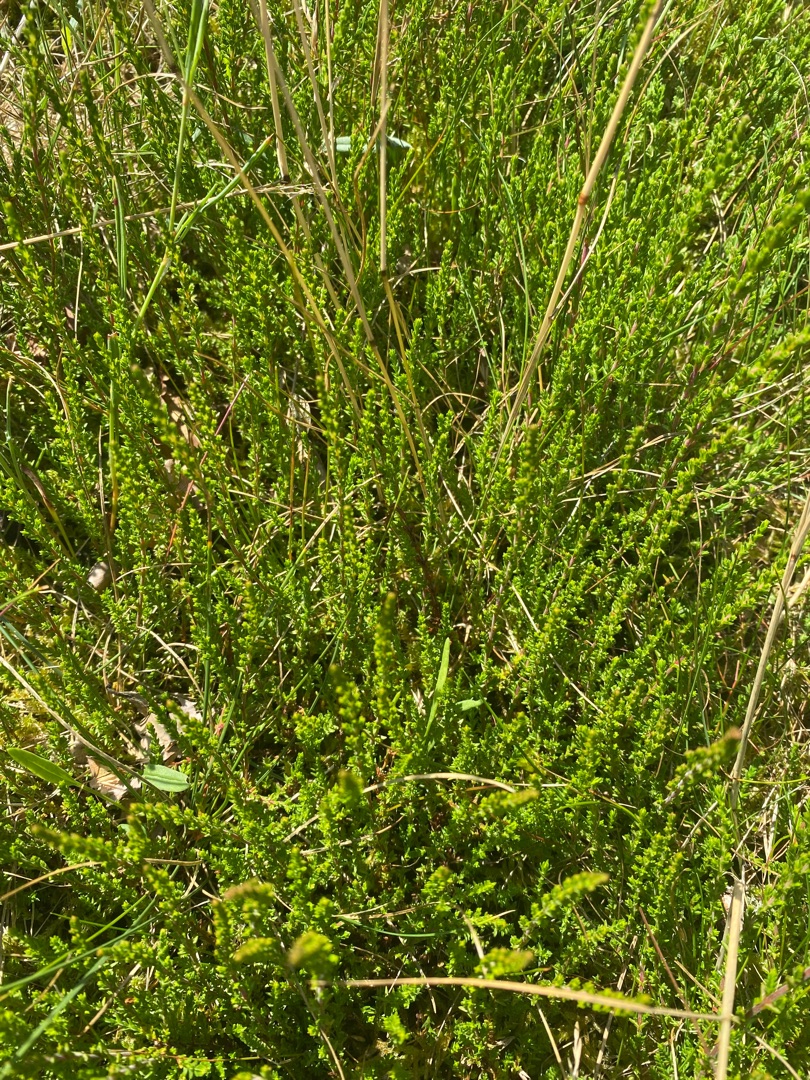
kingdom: Plantae
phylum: Tracheophyta
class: Magnoliopsida
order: Ericales
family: Ericaceae
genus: Calluna
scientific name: Calluna vulgaris
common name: Hedelyng
